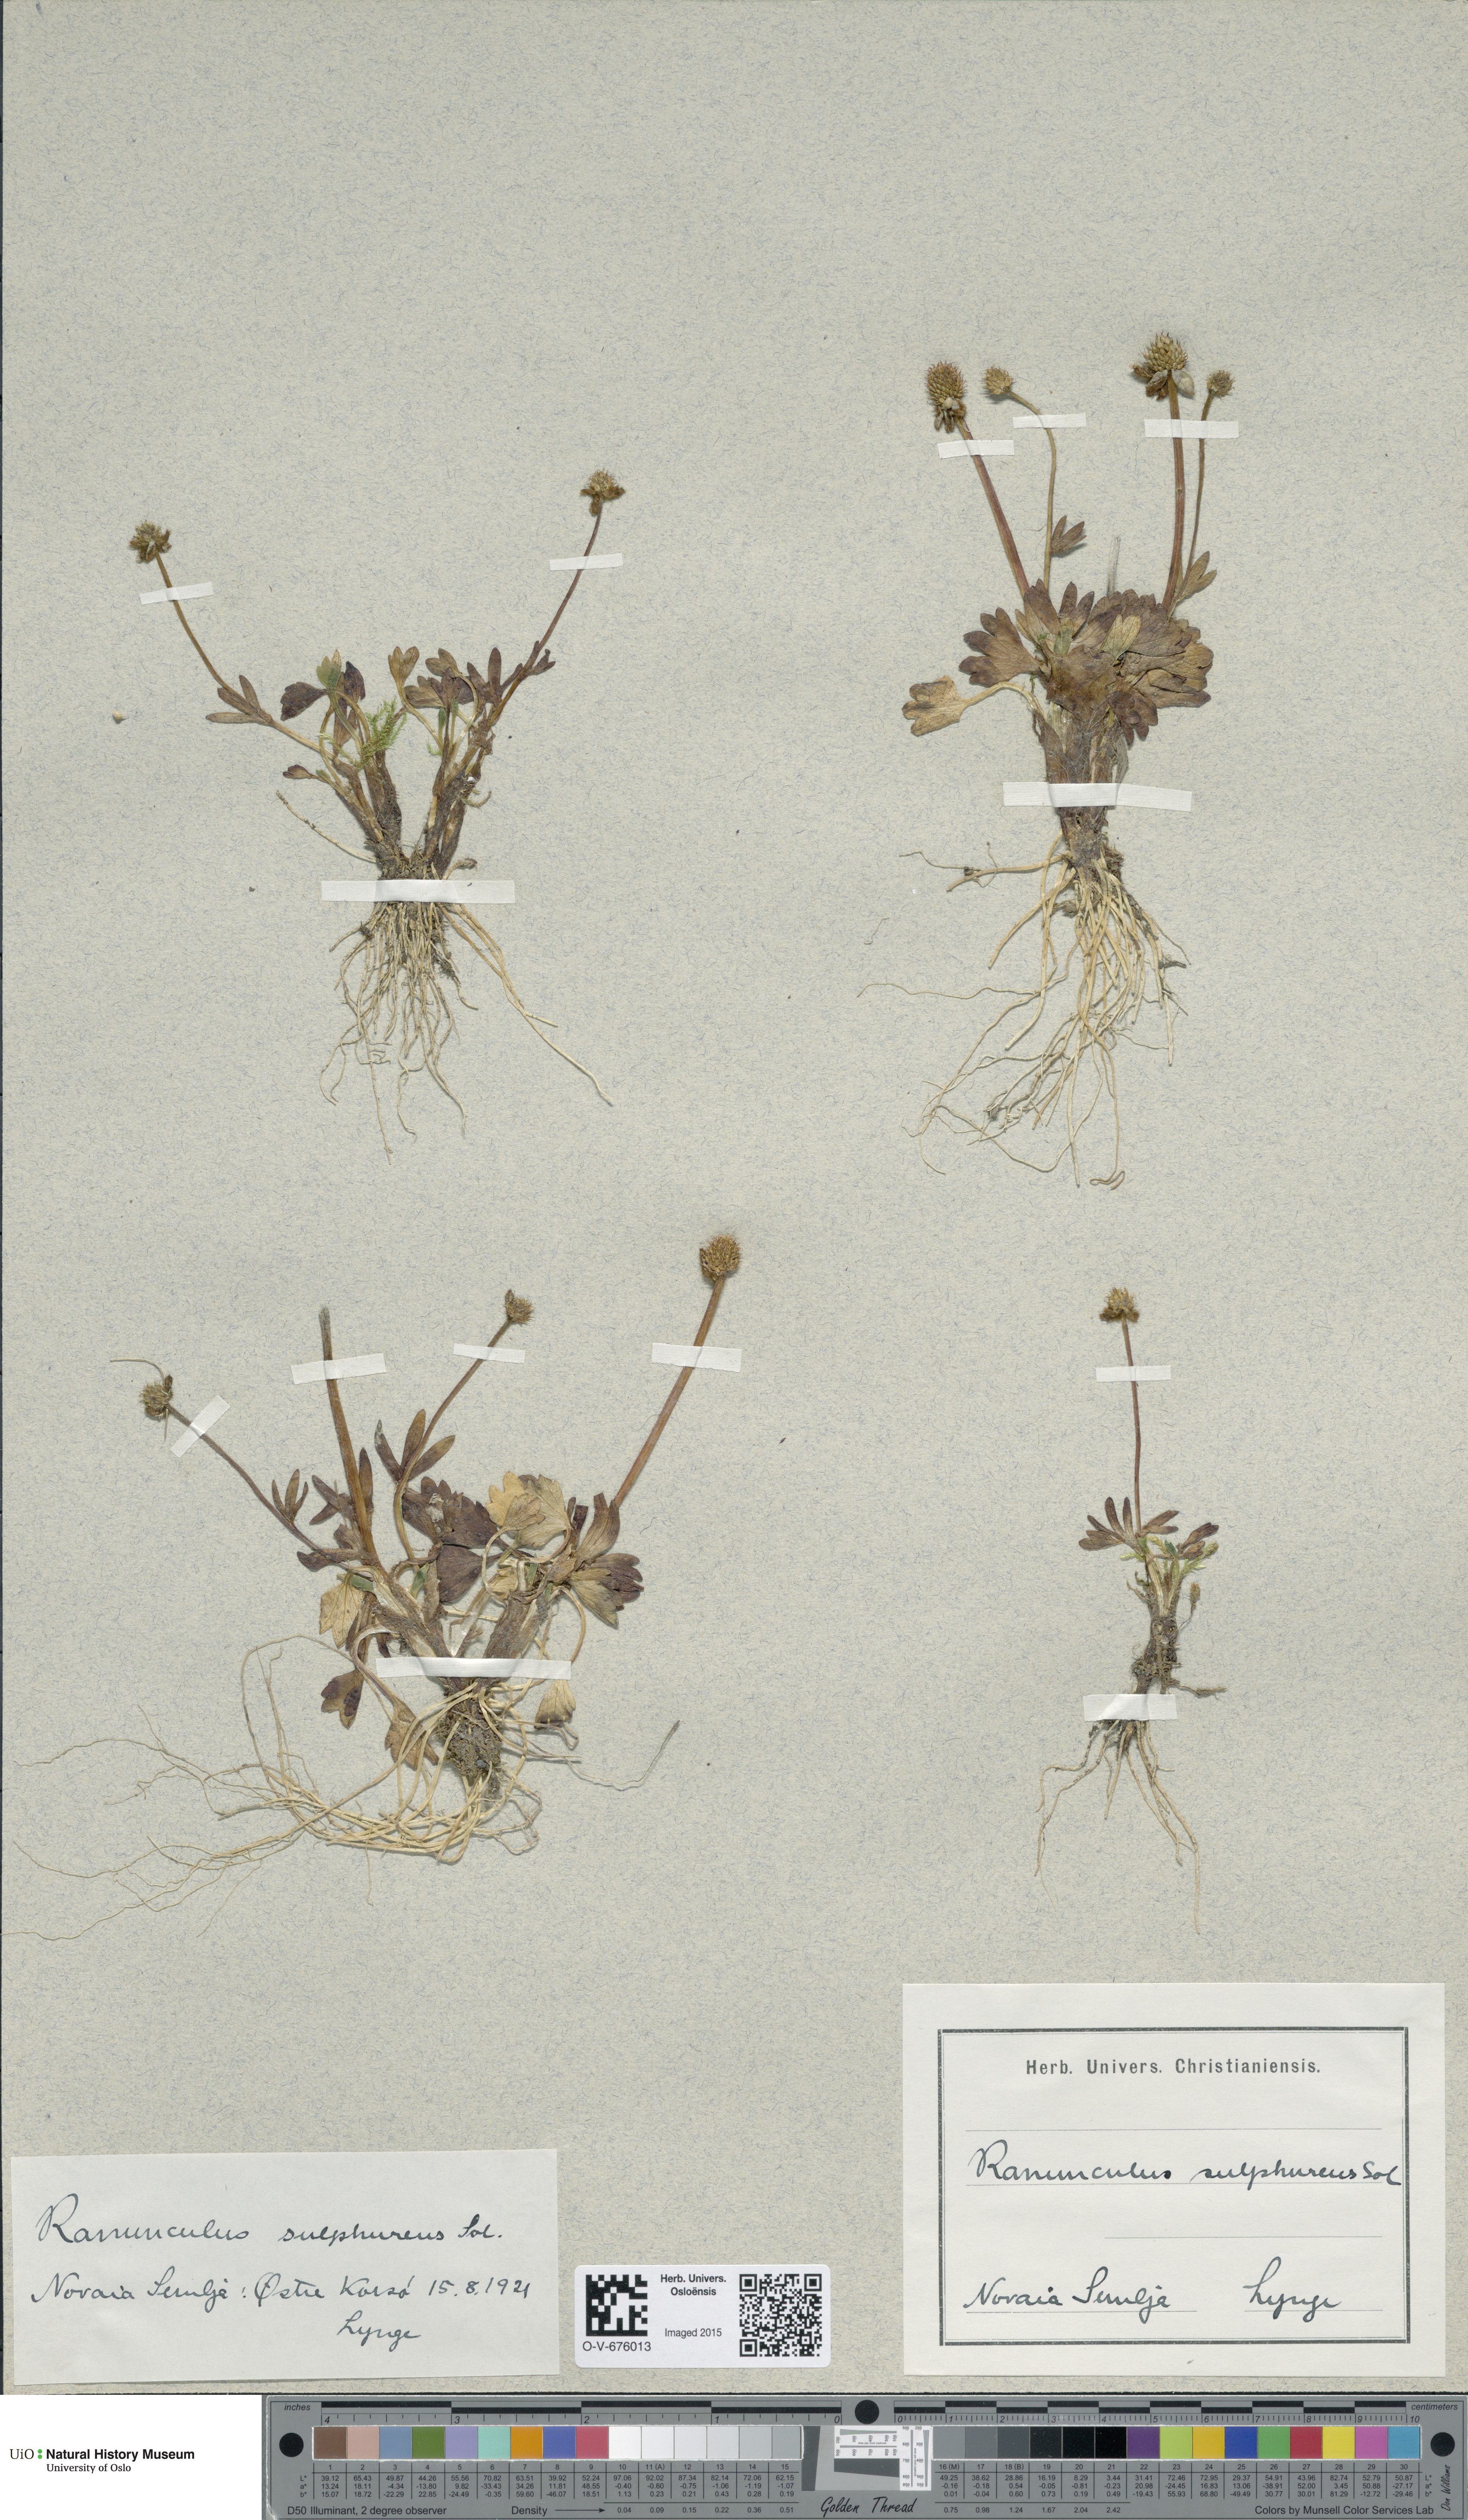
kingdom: Plantae
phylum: Tracheophyta
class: Magnoliopsida
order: Ranunculales
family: Ranunculaceae
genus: Ranunculus
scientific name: Ranunculus sulphureus
